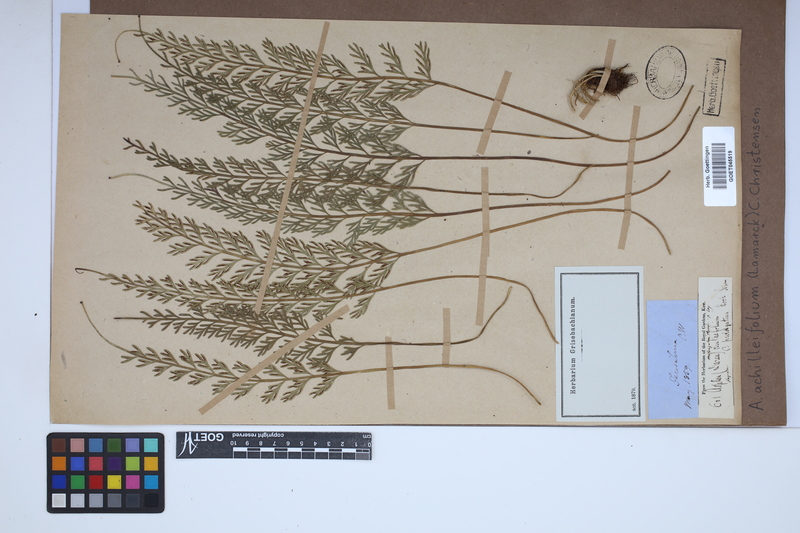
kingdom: Plantae
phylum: Tracheophyta
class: Polypodiopsida
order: Polypodiales
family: Aspleniaceae
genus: Asplenium
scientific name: Asplenium rutifolium
